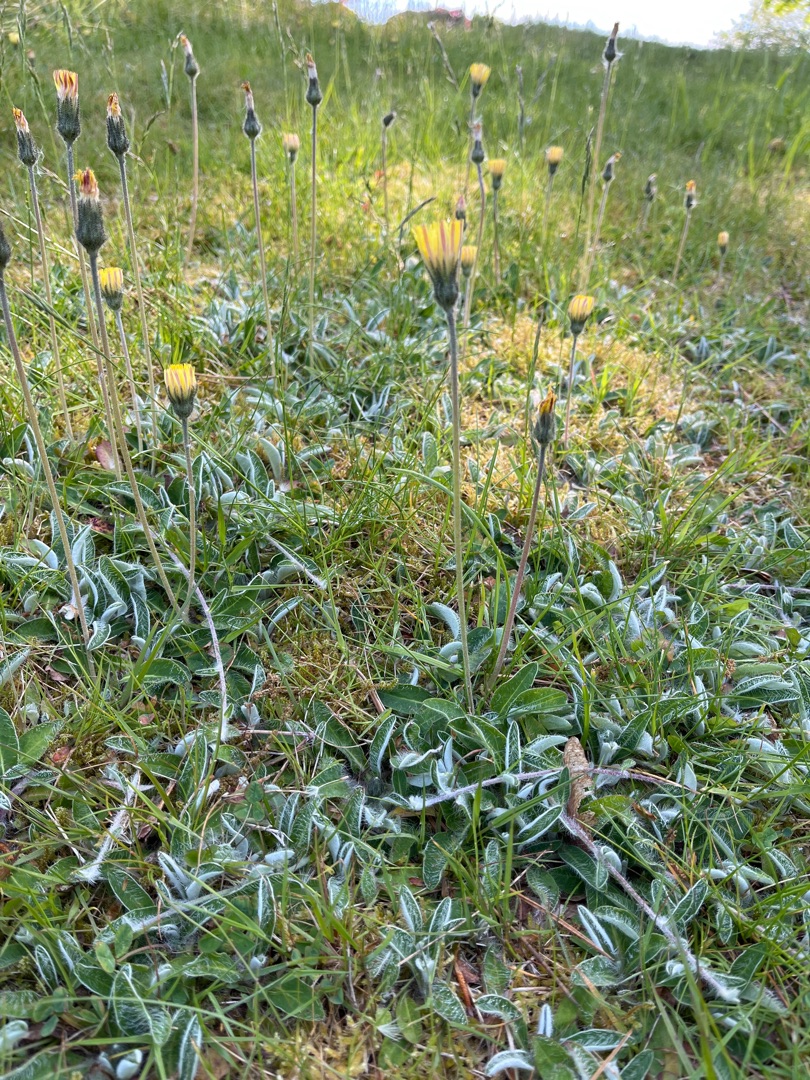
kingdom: Plantae
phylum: Tracheophyta
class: Magnoliopsida
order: Asterales
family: Asteraceae
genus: Pilosella
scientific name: Pilosella officinarum
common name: Håret høgeurt
